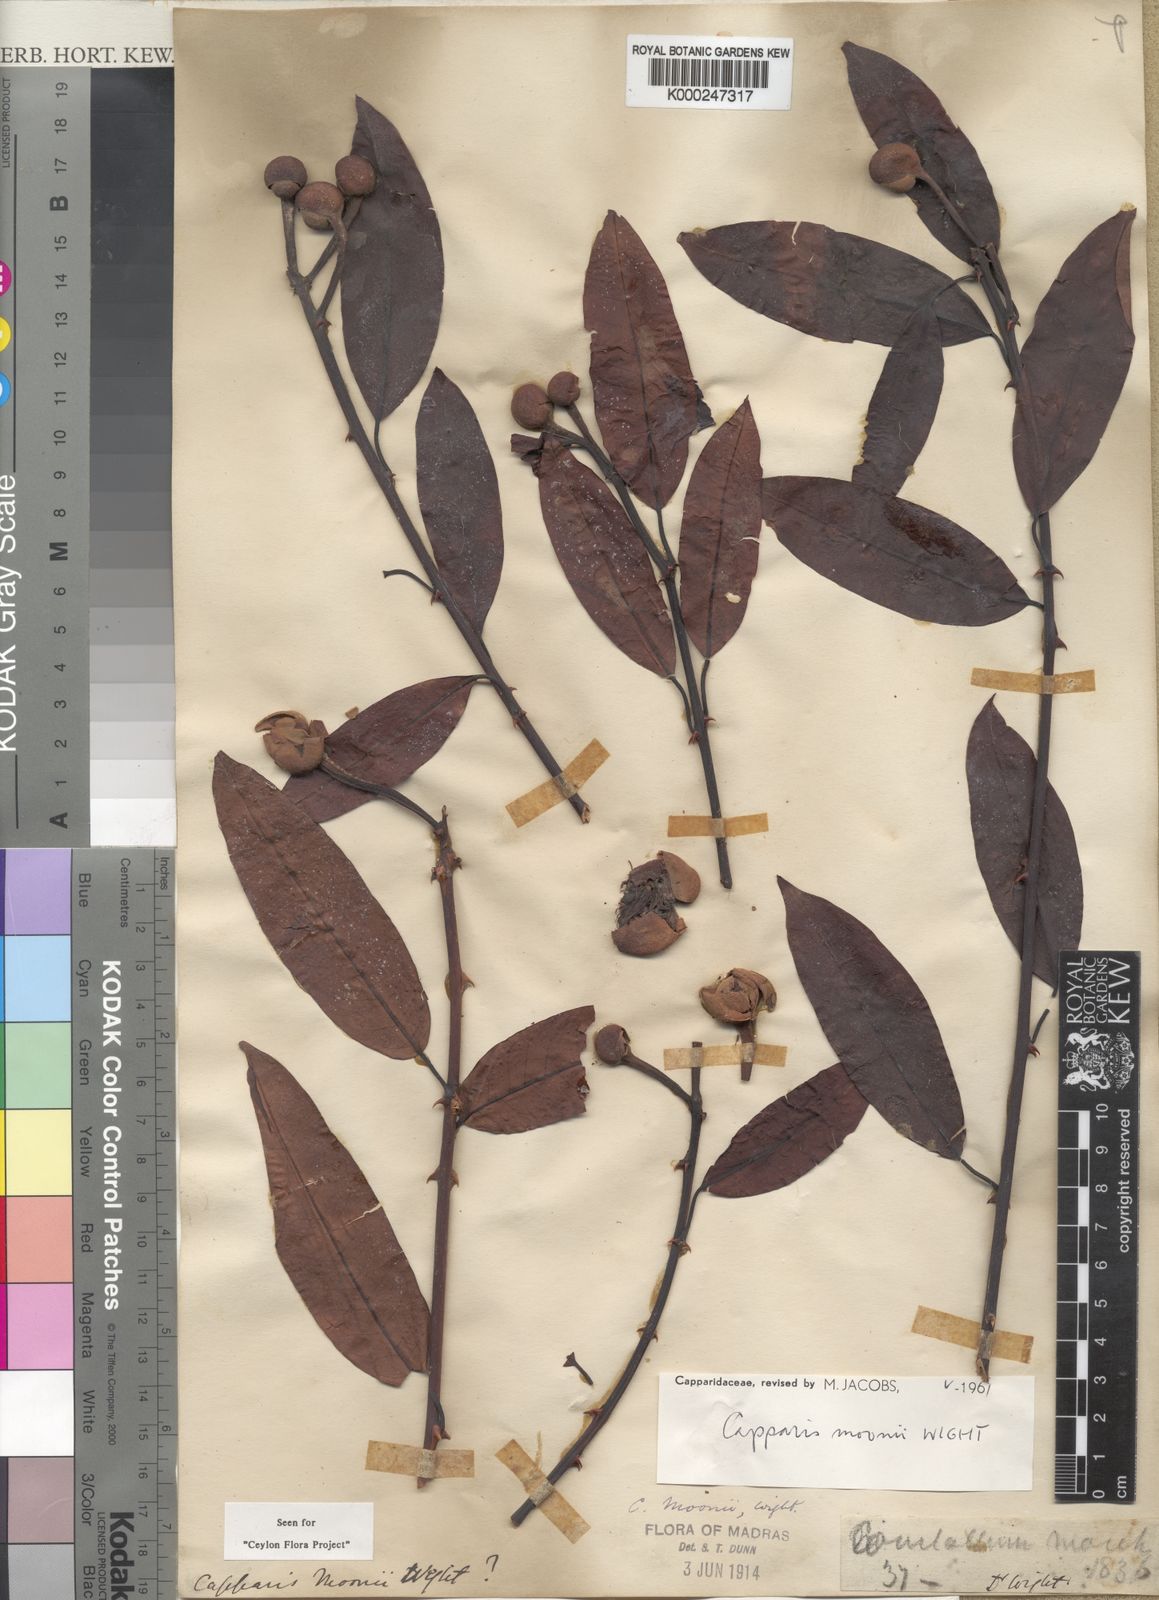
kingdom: Plantae
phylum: Tracheophyta
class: Magnoliopsida
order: Brassicales
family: Capparaceae
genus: Capparis
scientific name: Capparis moonii
